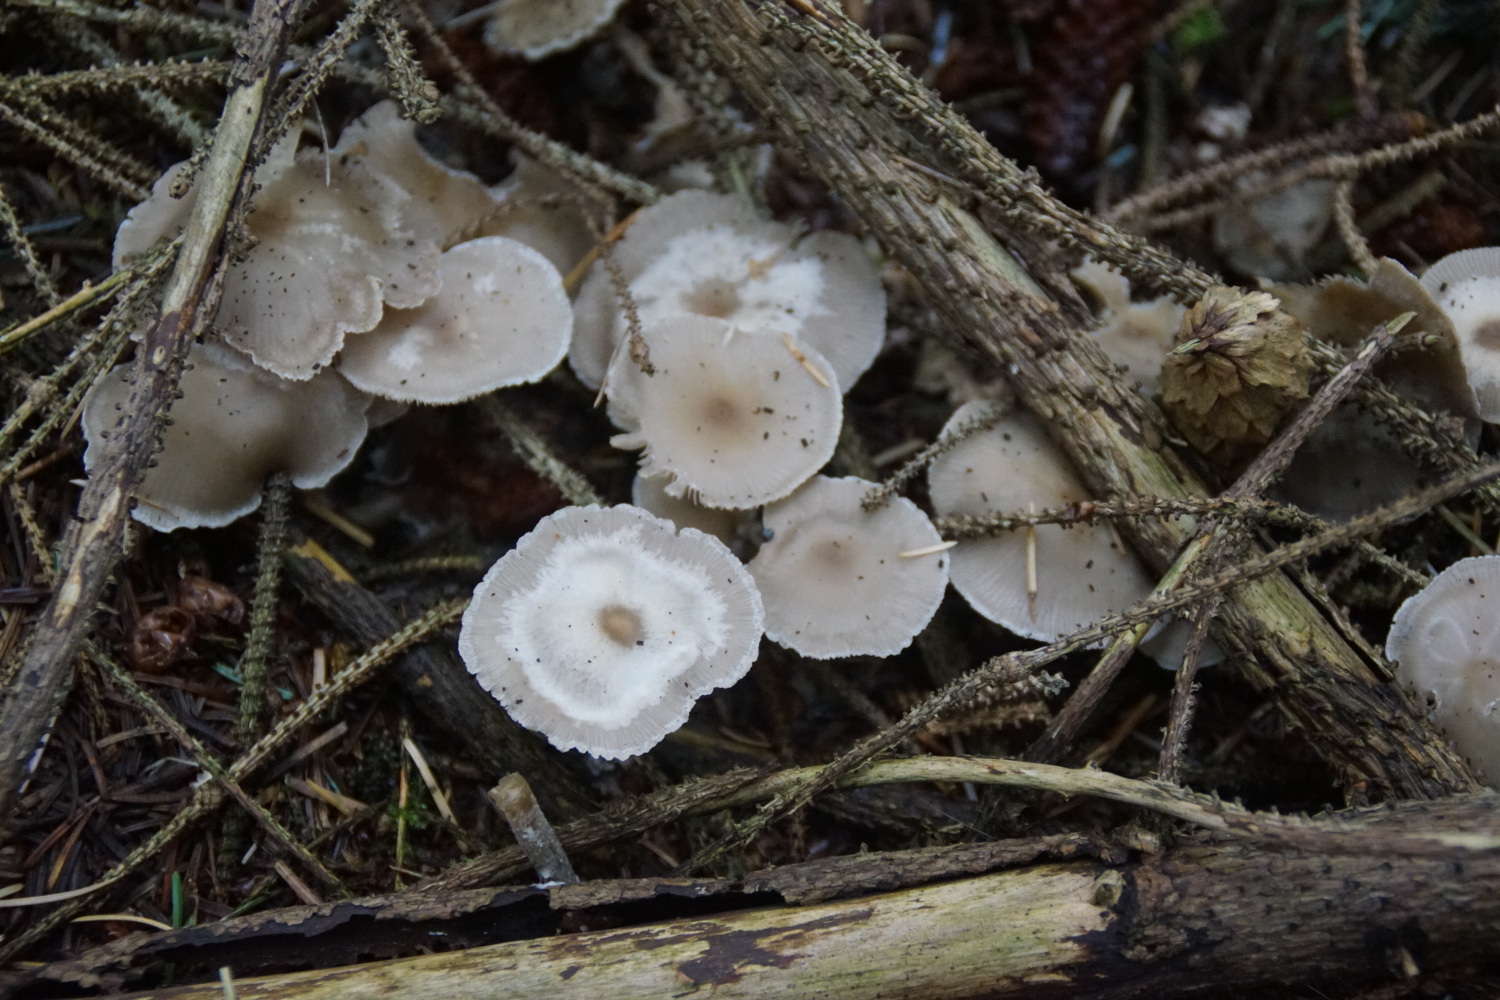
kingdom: Fungi
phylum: Basidiomycota
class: Agaricomycetes
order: Agaricales
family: Tricholomataceae
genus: Clitocybe
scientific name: Clitocybe metachroa
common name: grå tragthat
